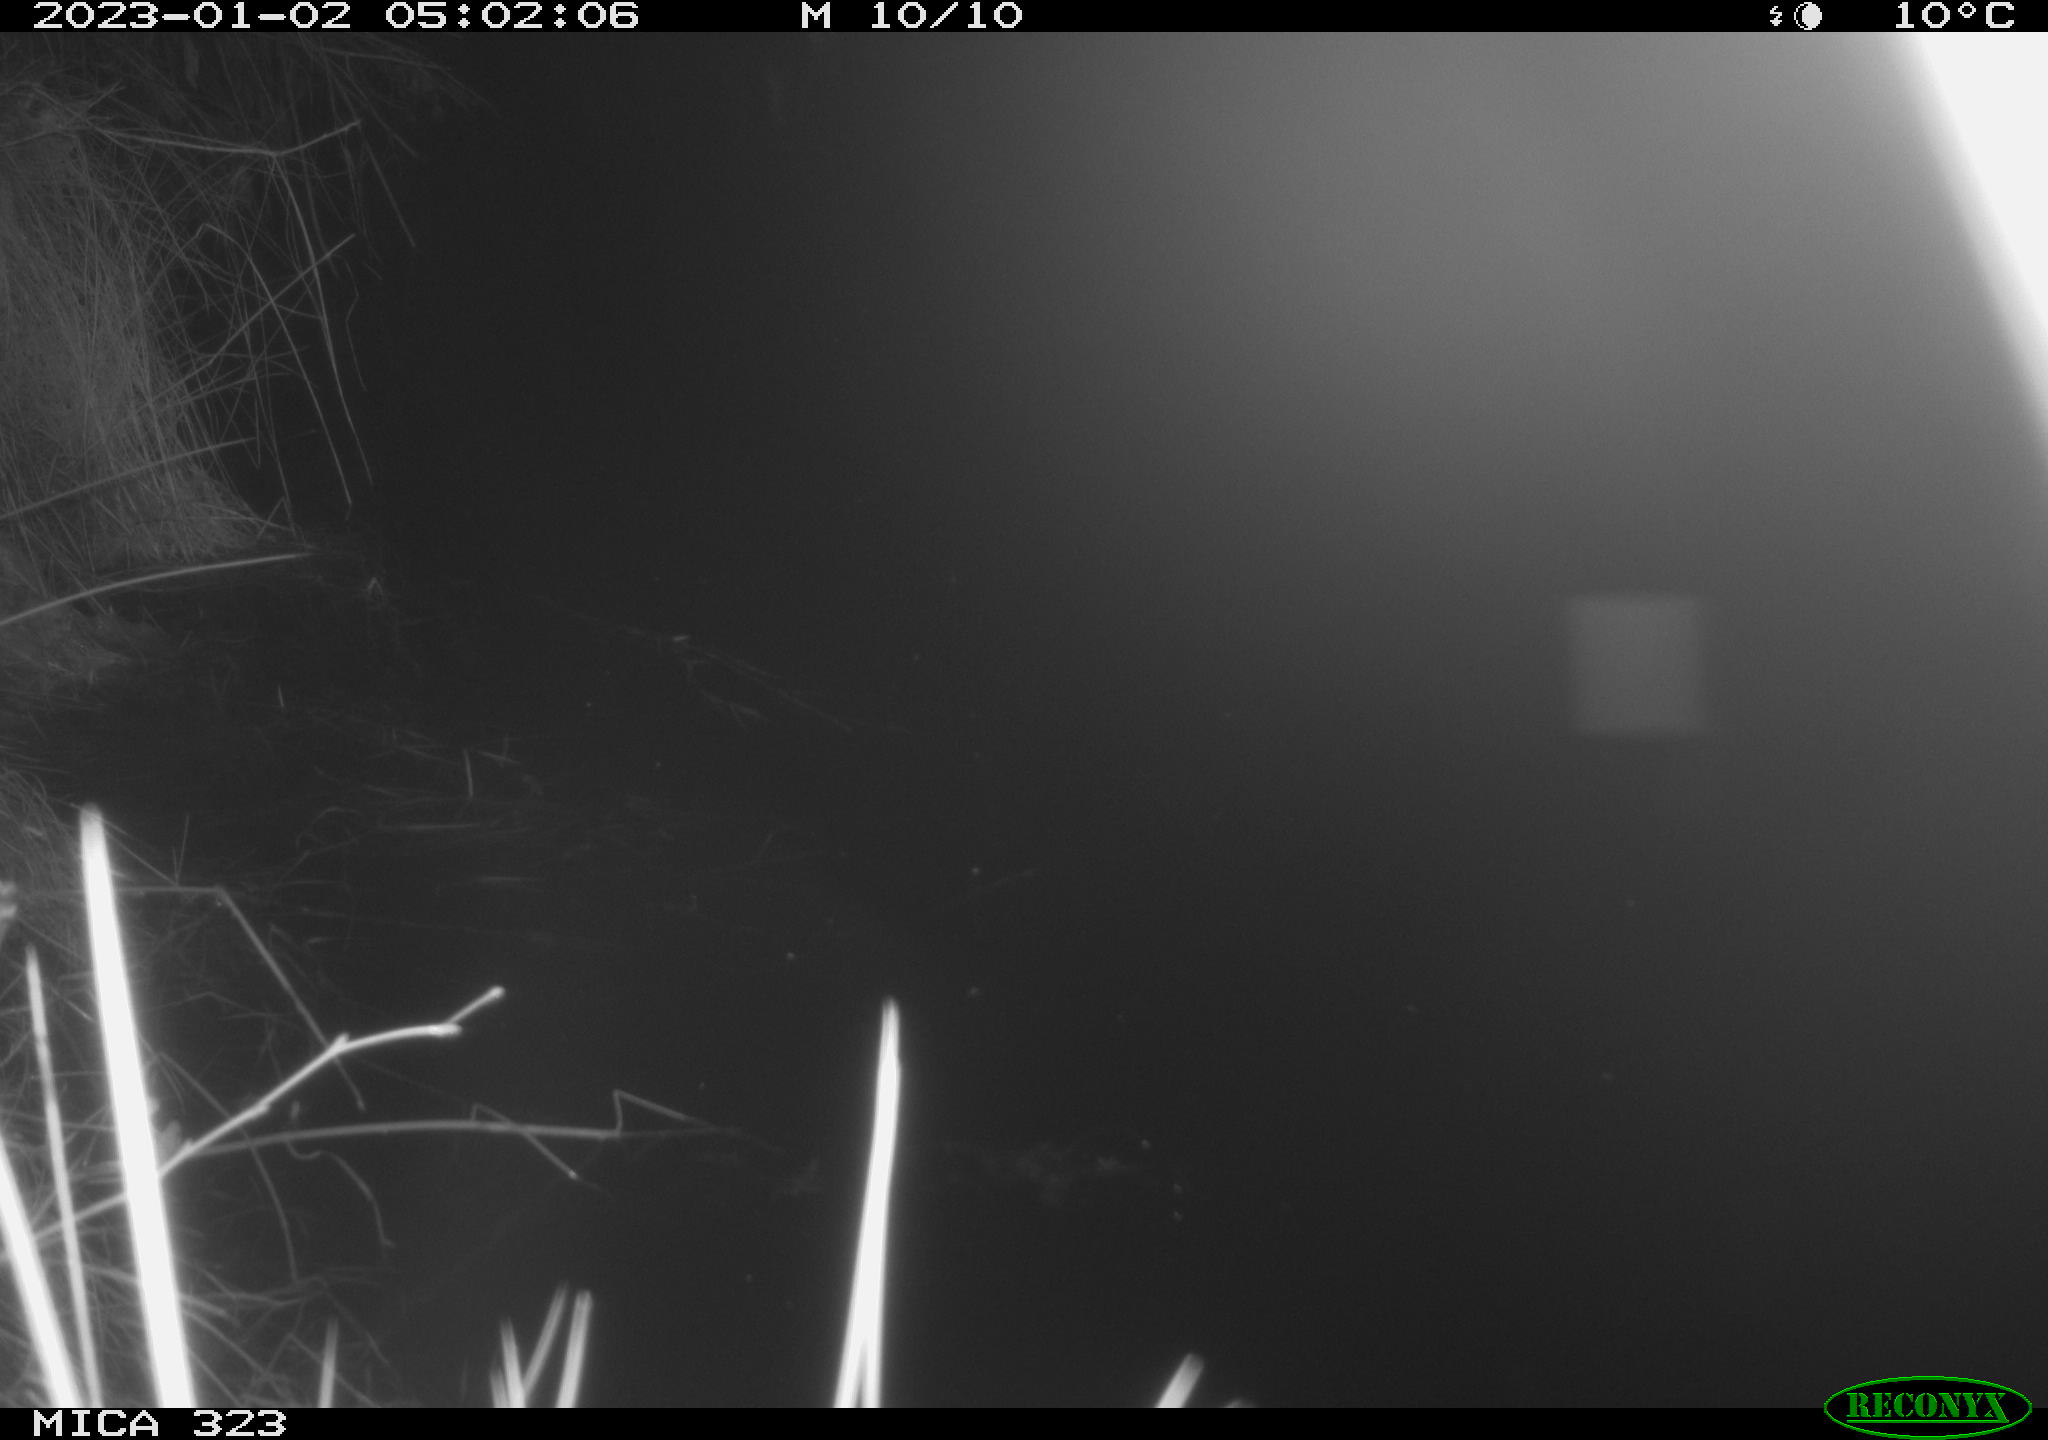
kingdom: Animalia
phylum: Chordata
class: Mammalia
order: Rodentia
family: Cricetidae
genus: Ondatra
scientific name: Ondatra zibethicus
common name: Muskrat
